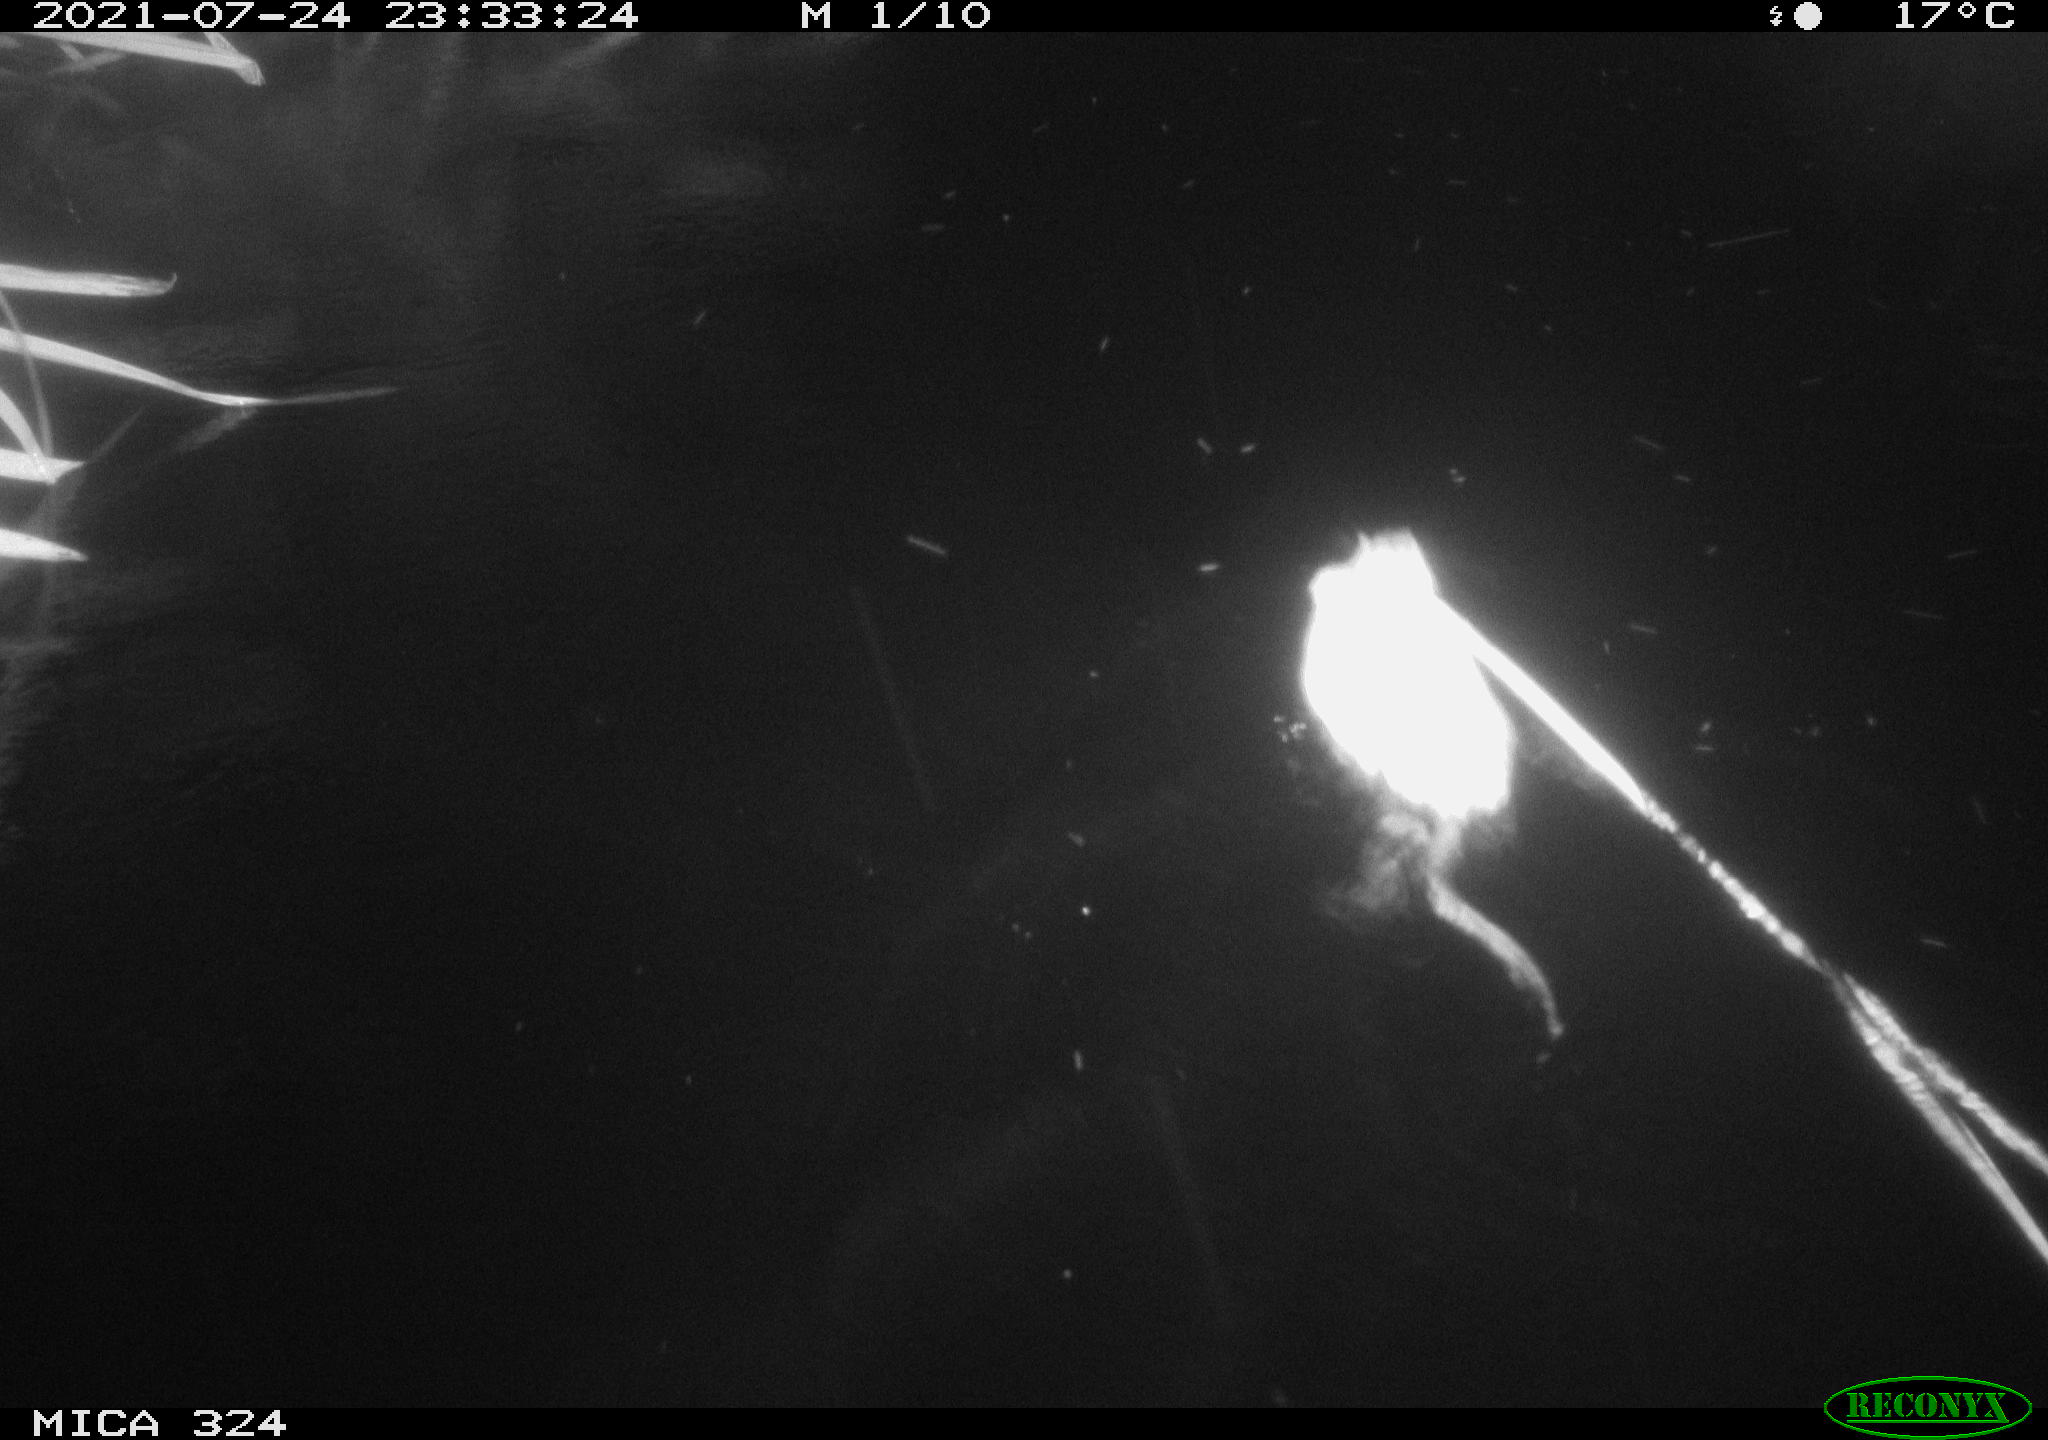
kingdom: Animalia
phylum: Chordata
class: Mammalia
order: Rodentia
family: Cricetidae
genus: Ondatra
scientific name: Ondatra zibethicus
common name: Muskrat
